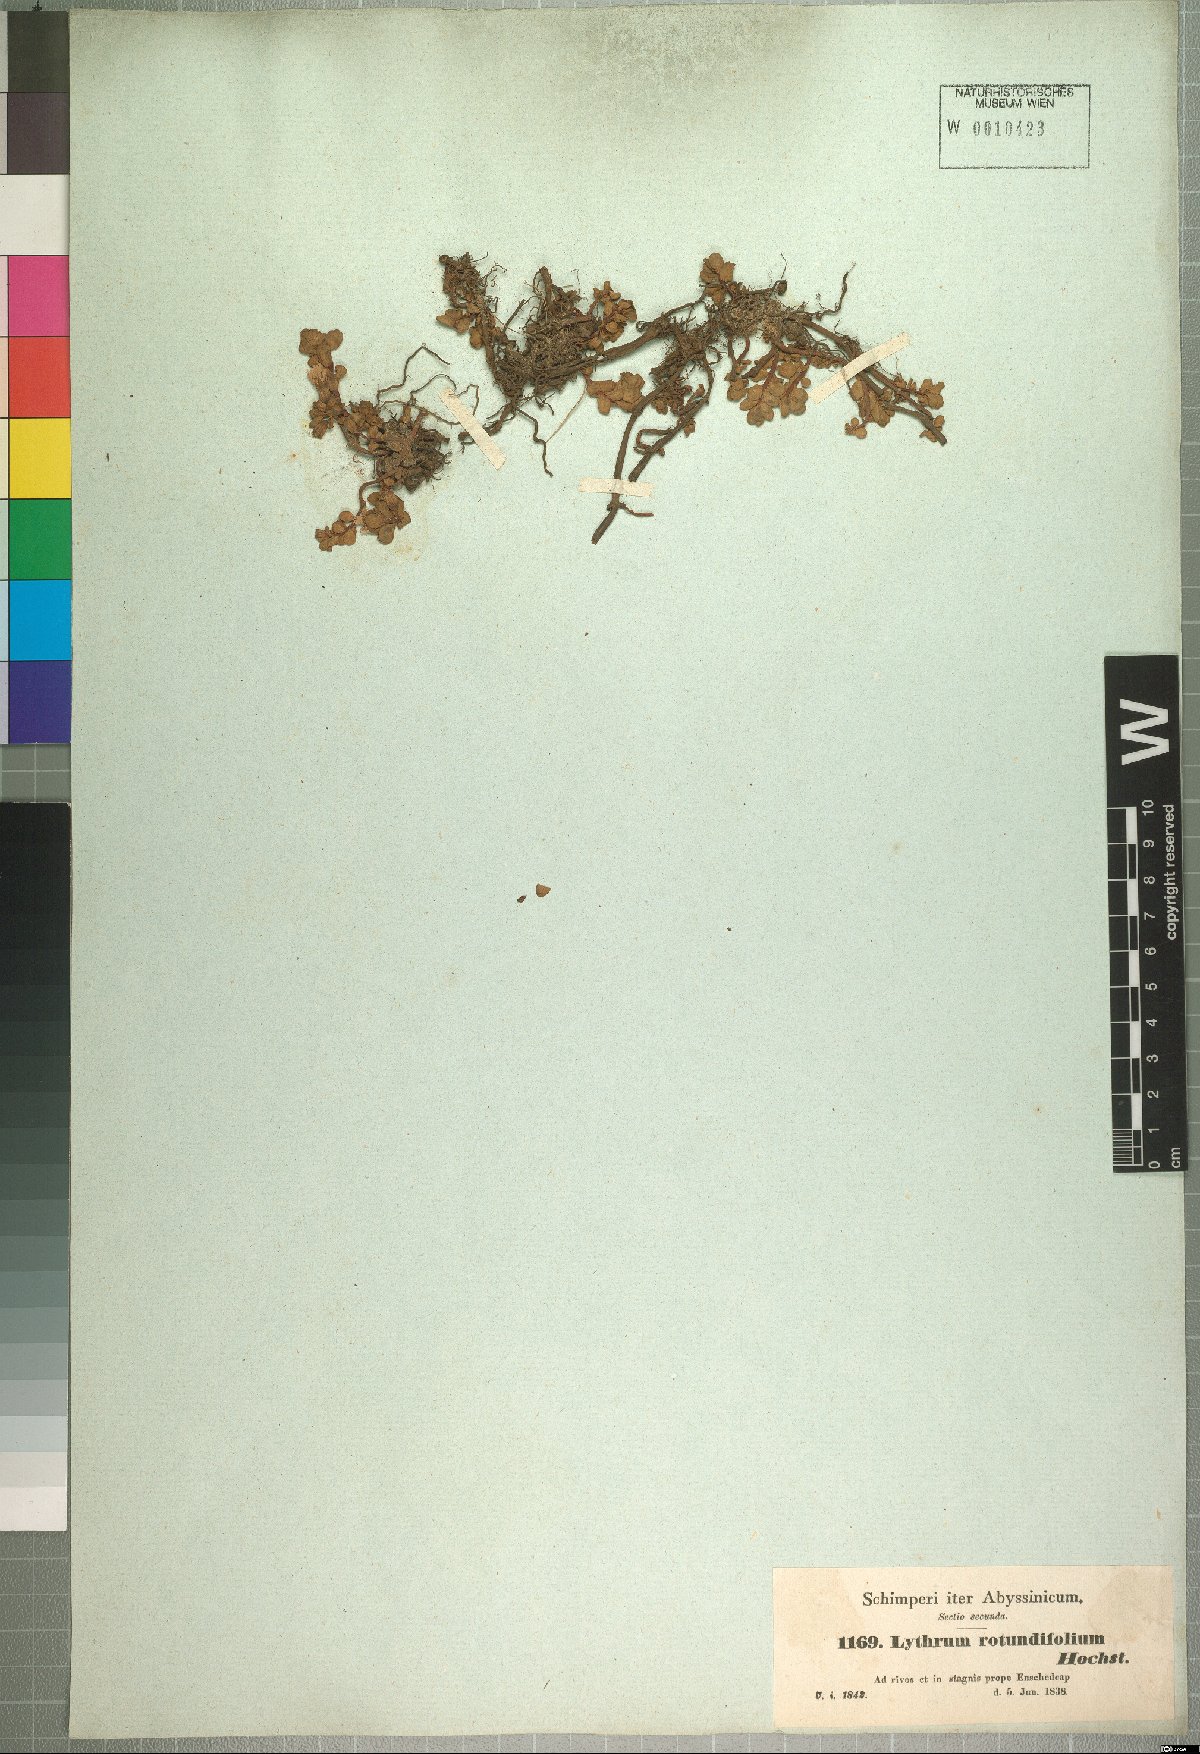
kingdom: Plantae
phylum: Tracheophyta
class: Magnoliopsida
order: Myrtales
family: Lythraceae
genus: Lythrum
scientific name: Lythrum rotundifolium
